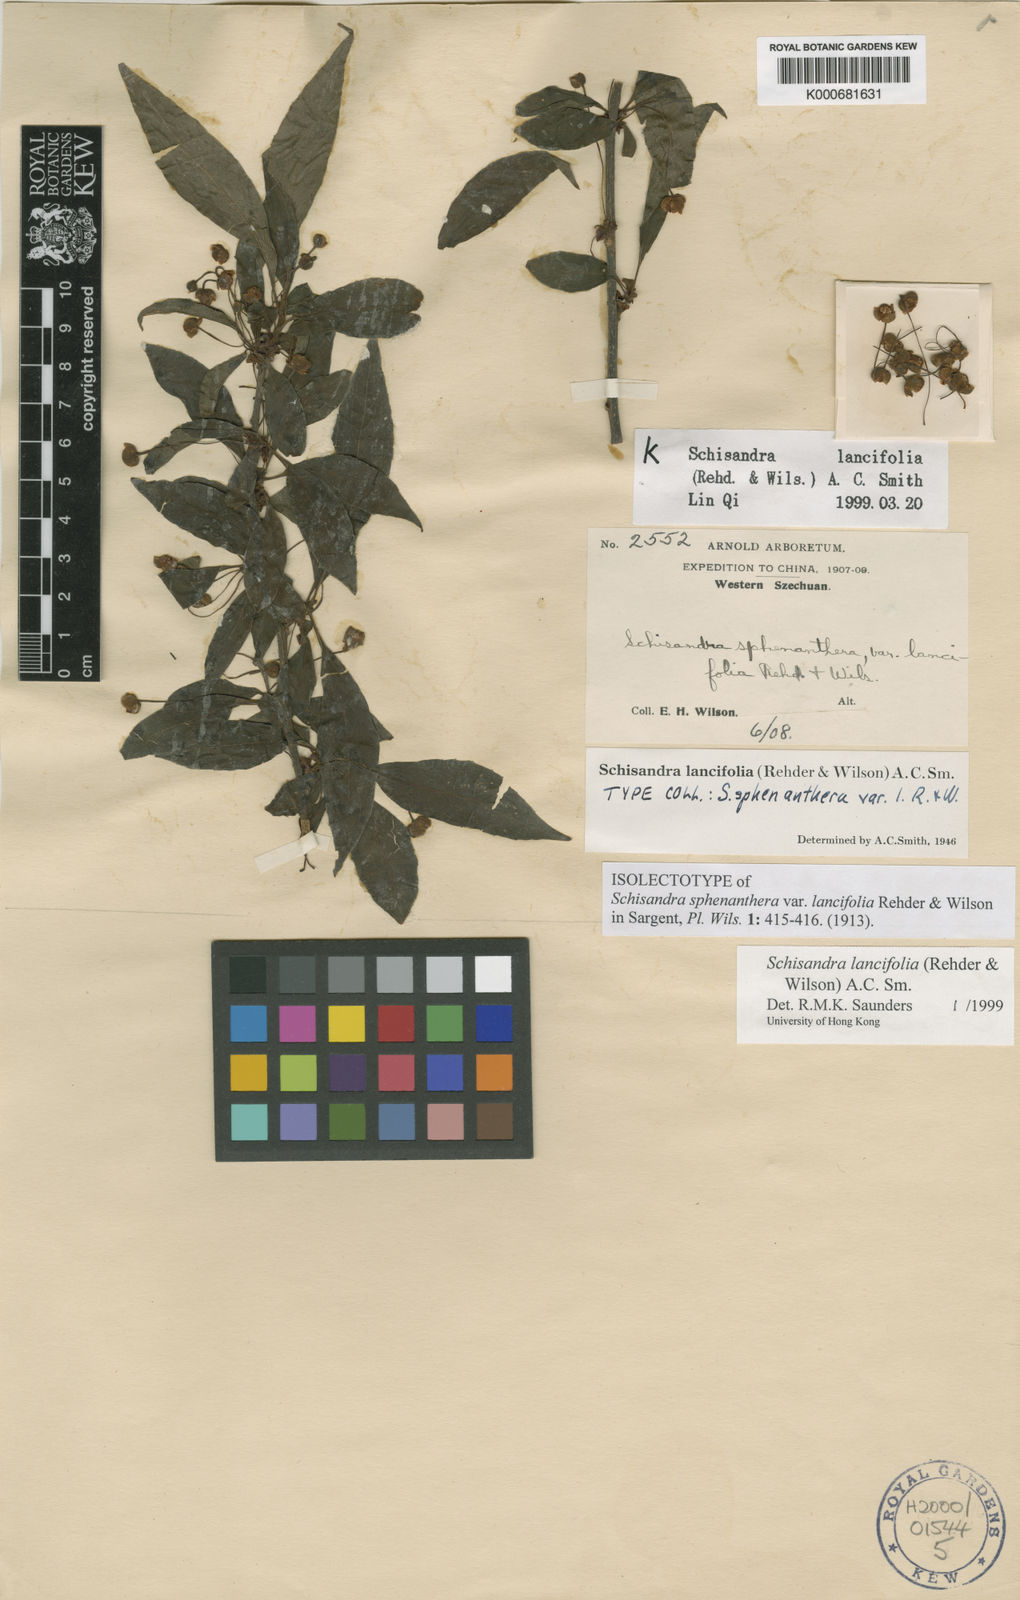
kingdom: Plantae
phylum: Tracheophyta
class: Magnoliopsida
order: Austrobaileyales
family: Schisandraceae
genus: Schisandra
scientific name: Schisandra lancifolia
